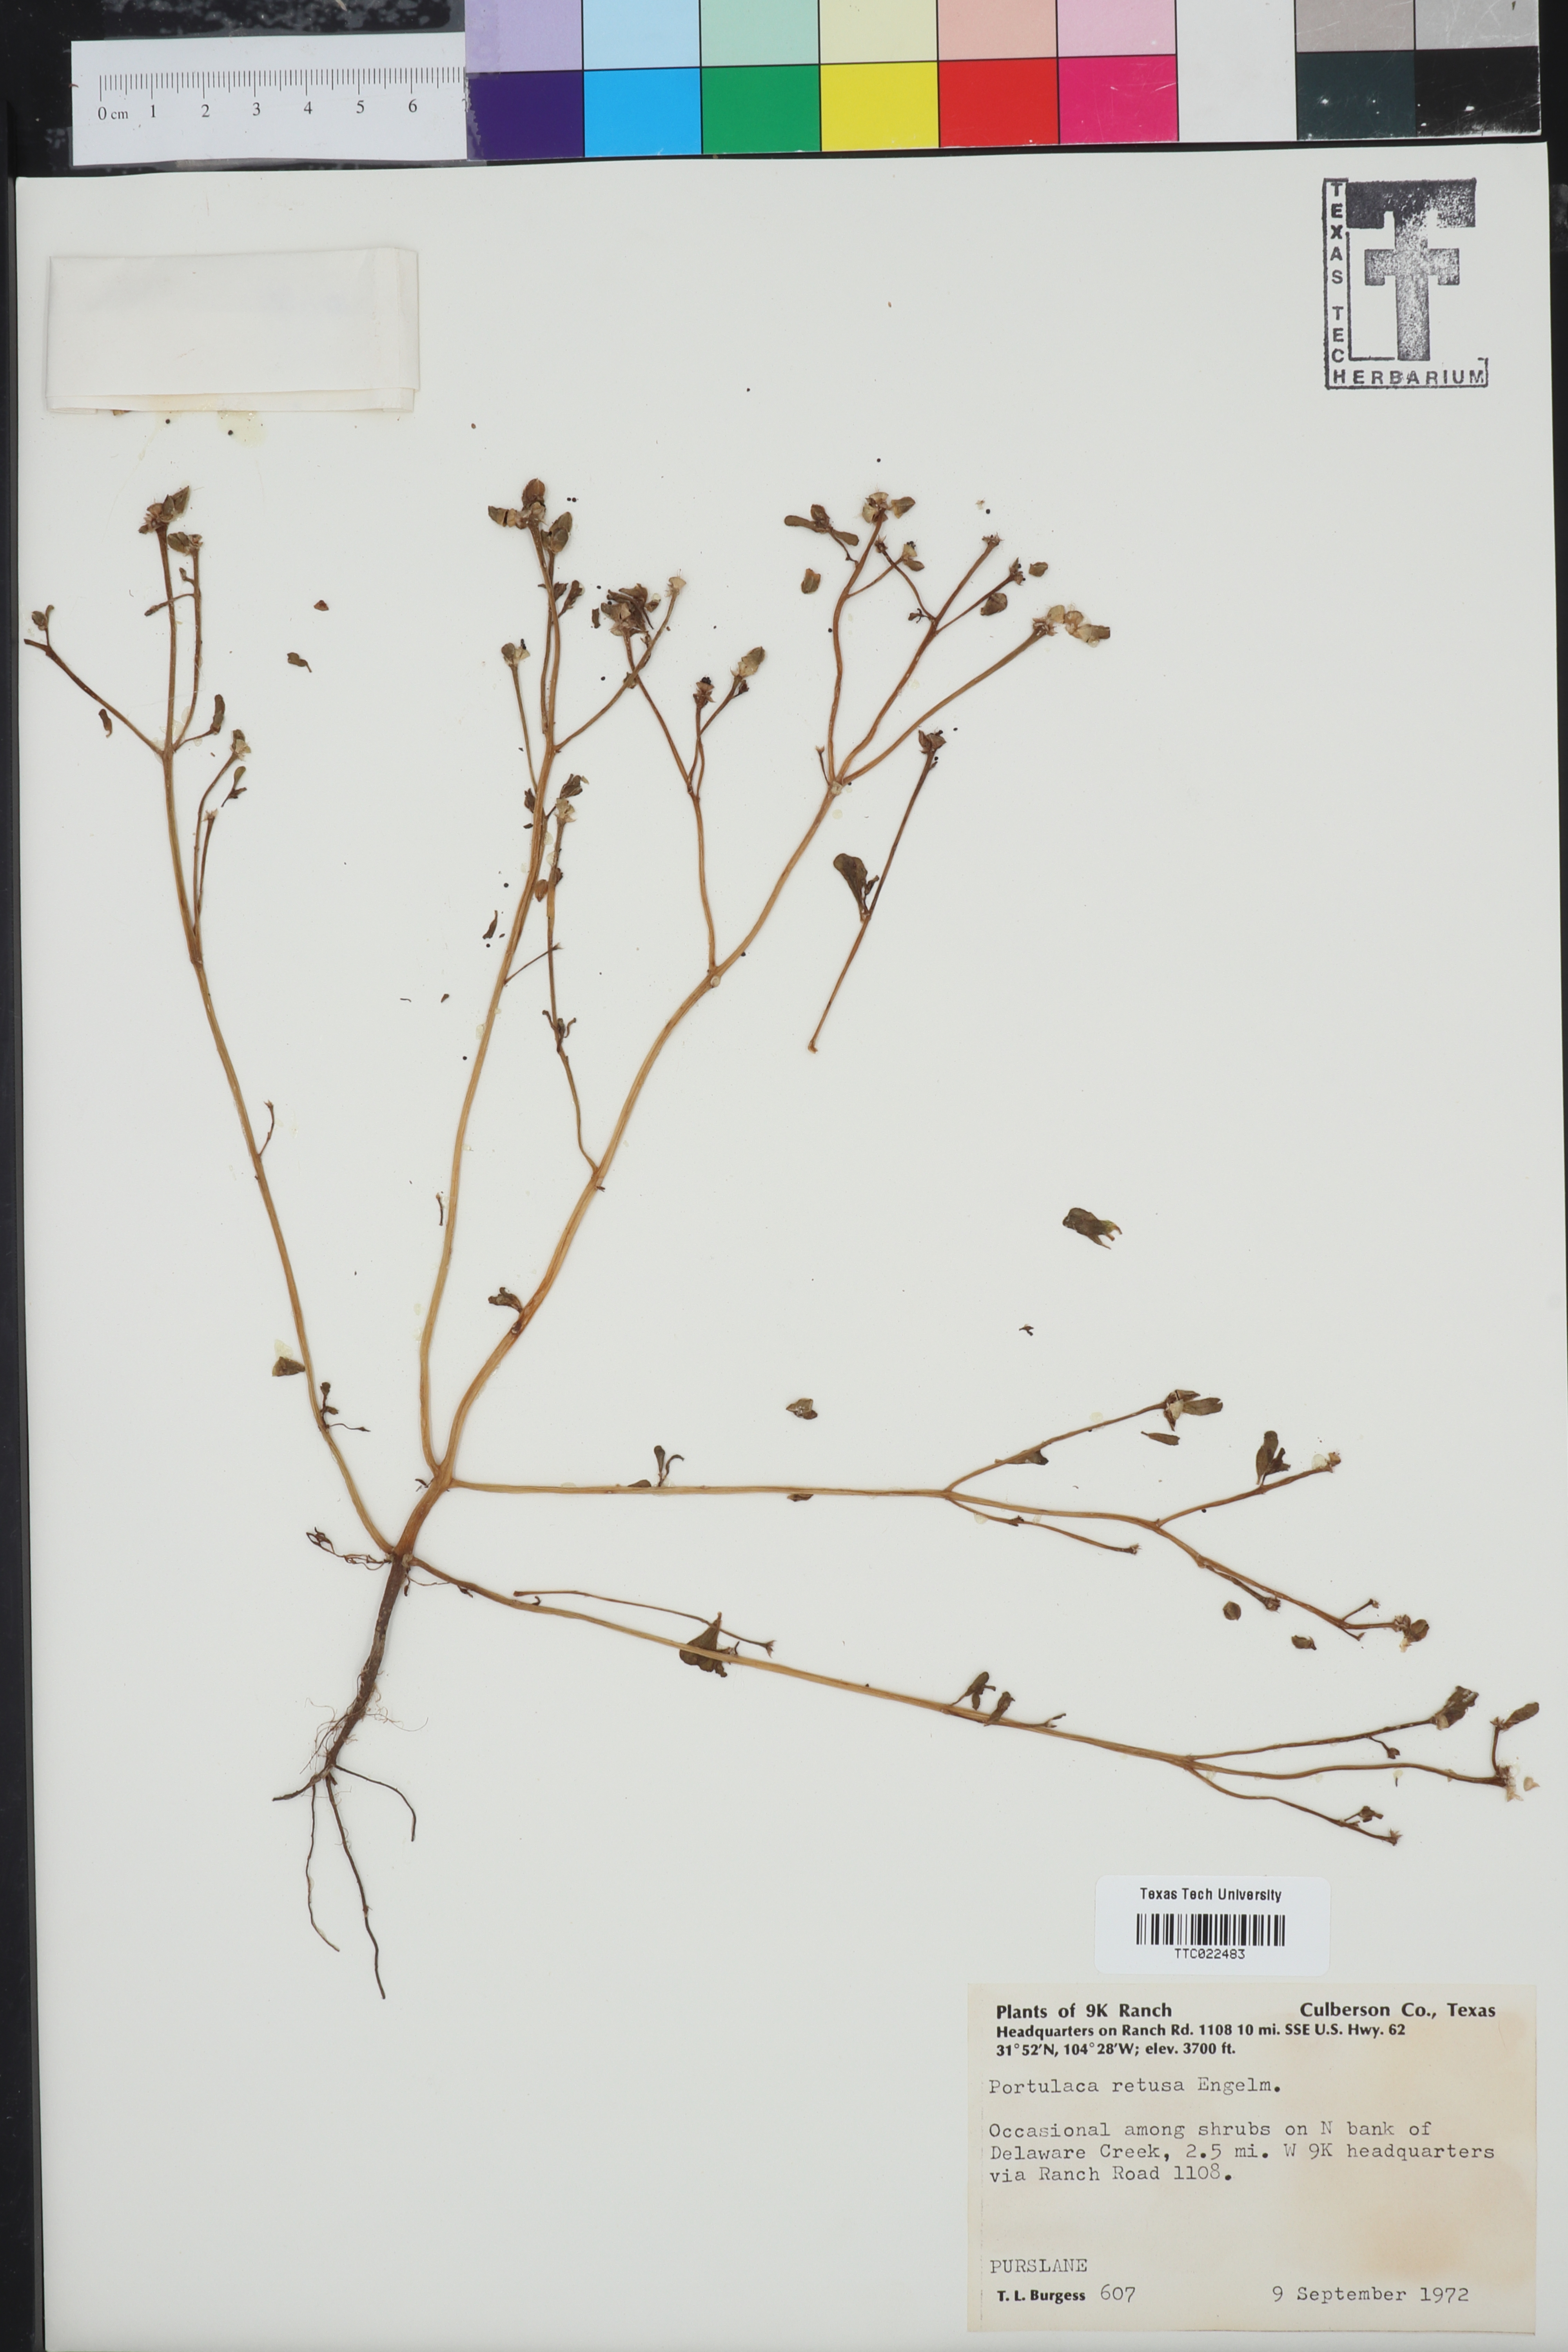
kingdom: Plantae
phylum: Tracheophyta
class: Magnoliopsida
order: Caryophyllales
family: Portulacaceae
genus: Portulaca
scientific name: Portulaca oleracea
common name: Common purslane
